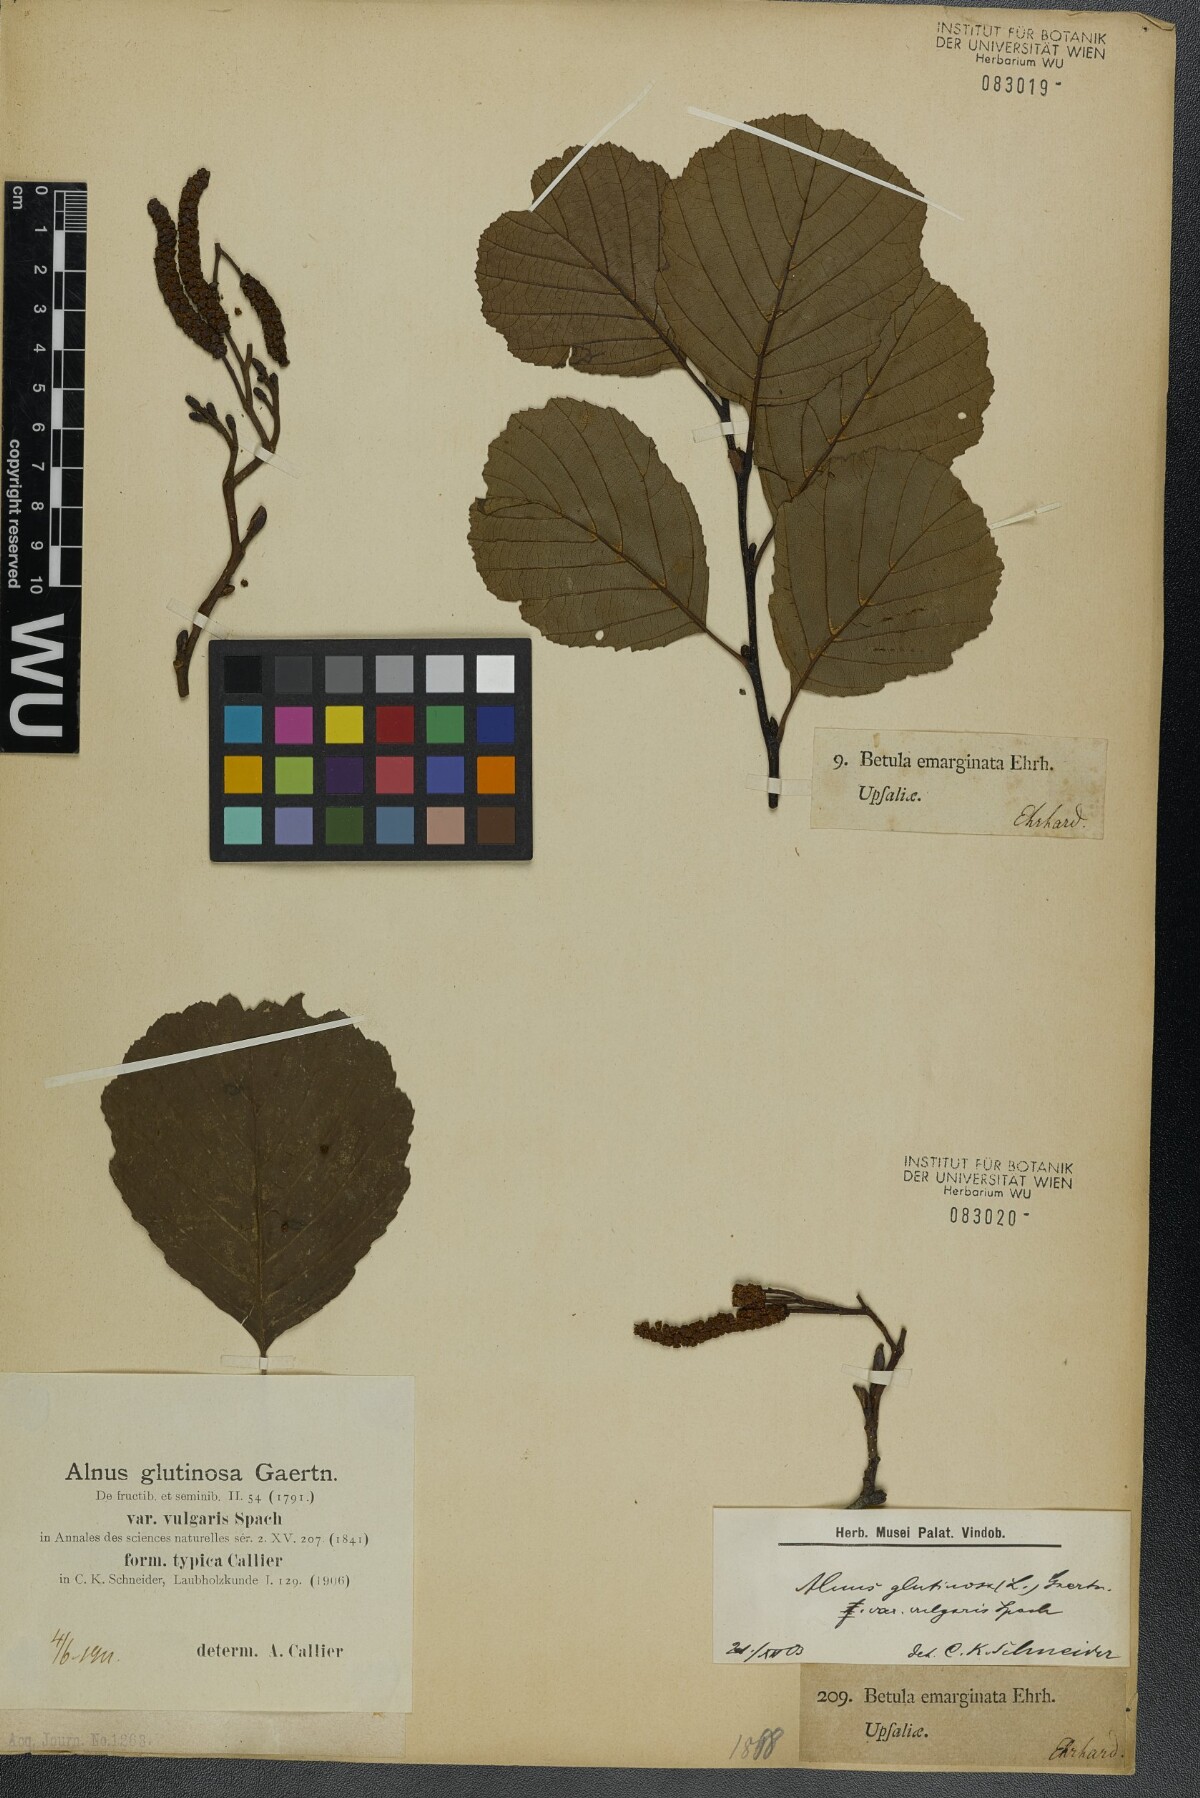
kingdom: Plantae
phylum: Tracheophyta
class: Magnoliopsida
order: Fagales
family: Betulaceae
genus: Alnus
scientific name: Alnus glutinosa
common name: Black alder
